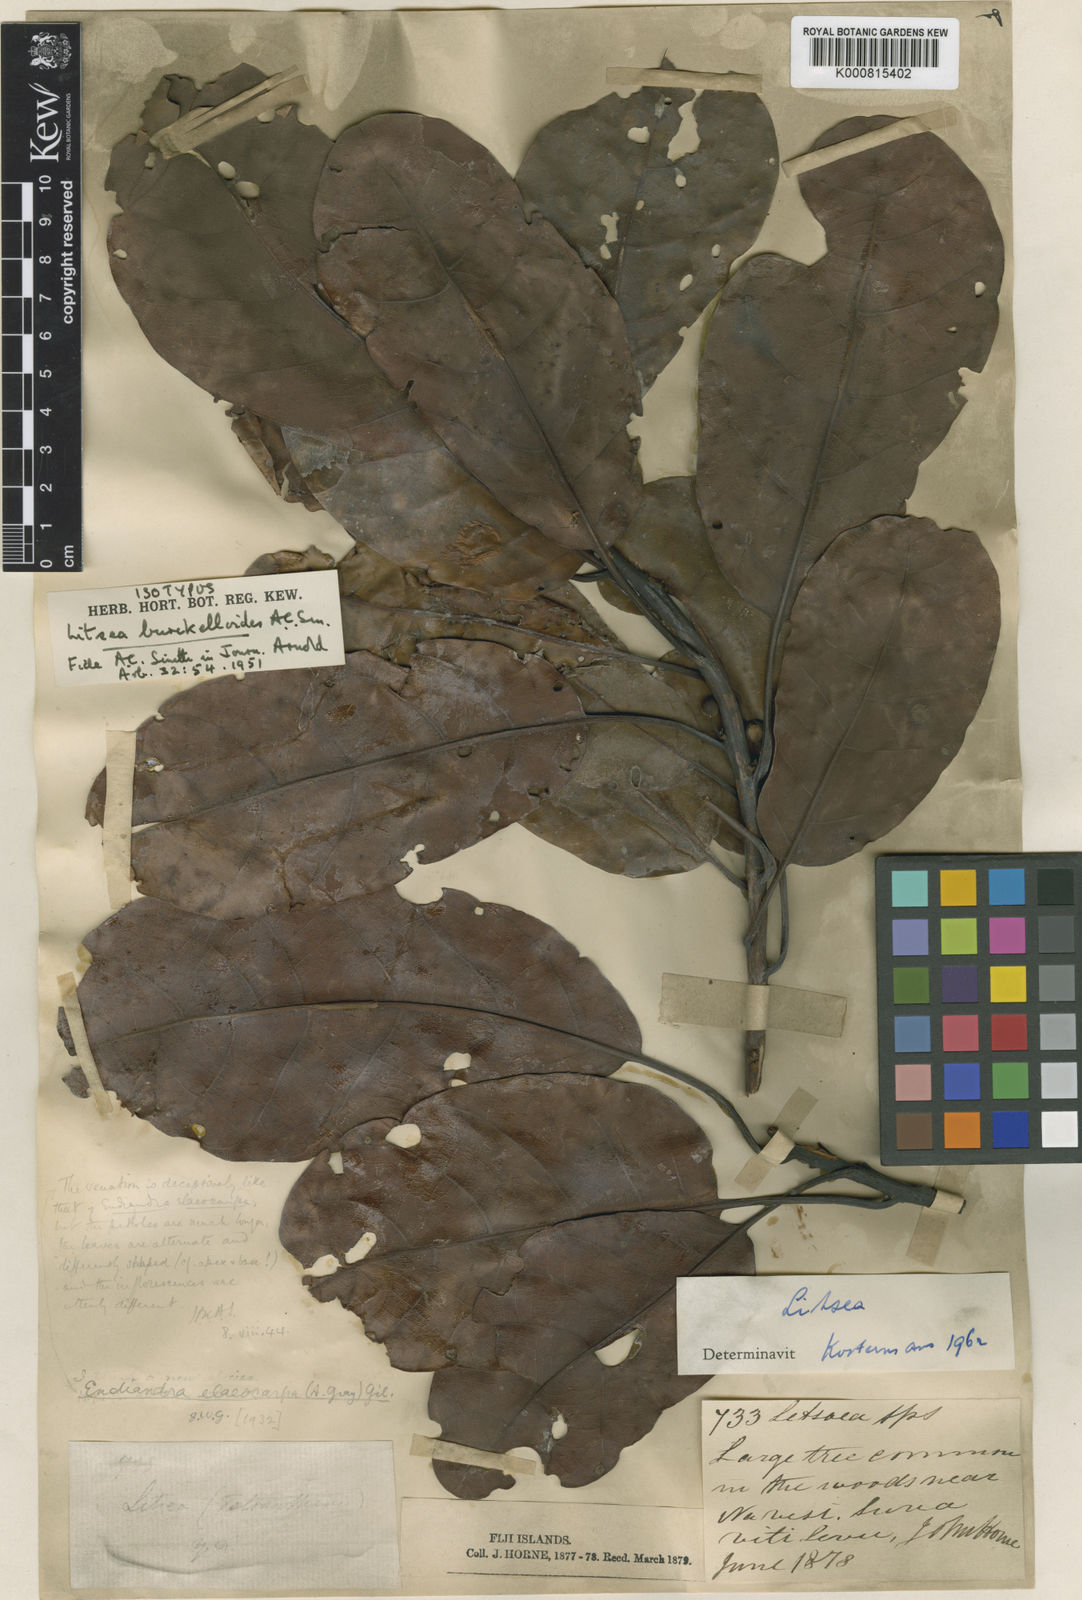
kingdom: Plantae
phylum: Tracheophyta
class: Magnoliopsida
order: Laurales
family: Lauraceae
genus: Litsea
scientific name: Litsea burckelloides
